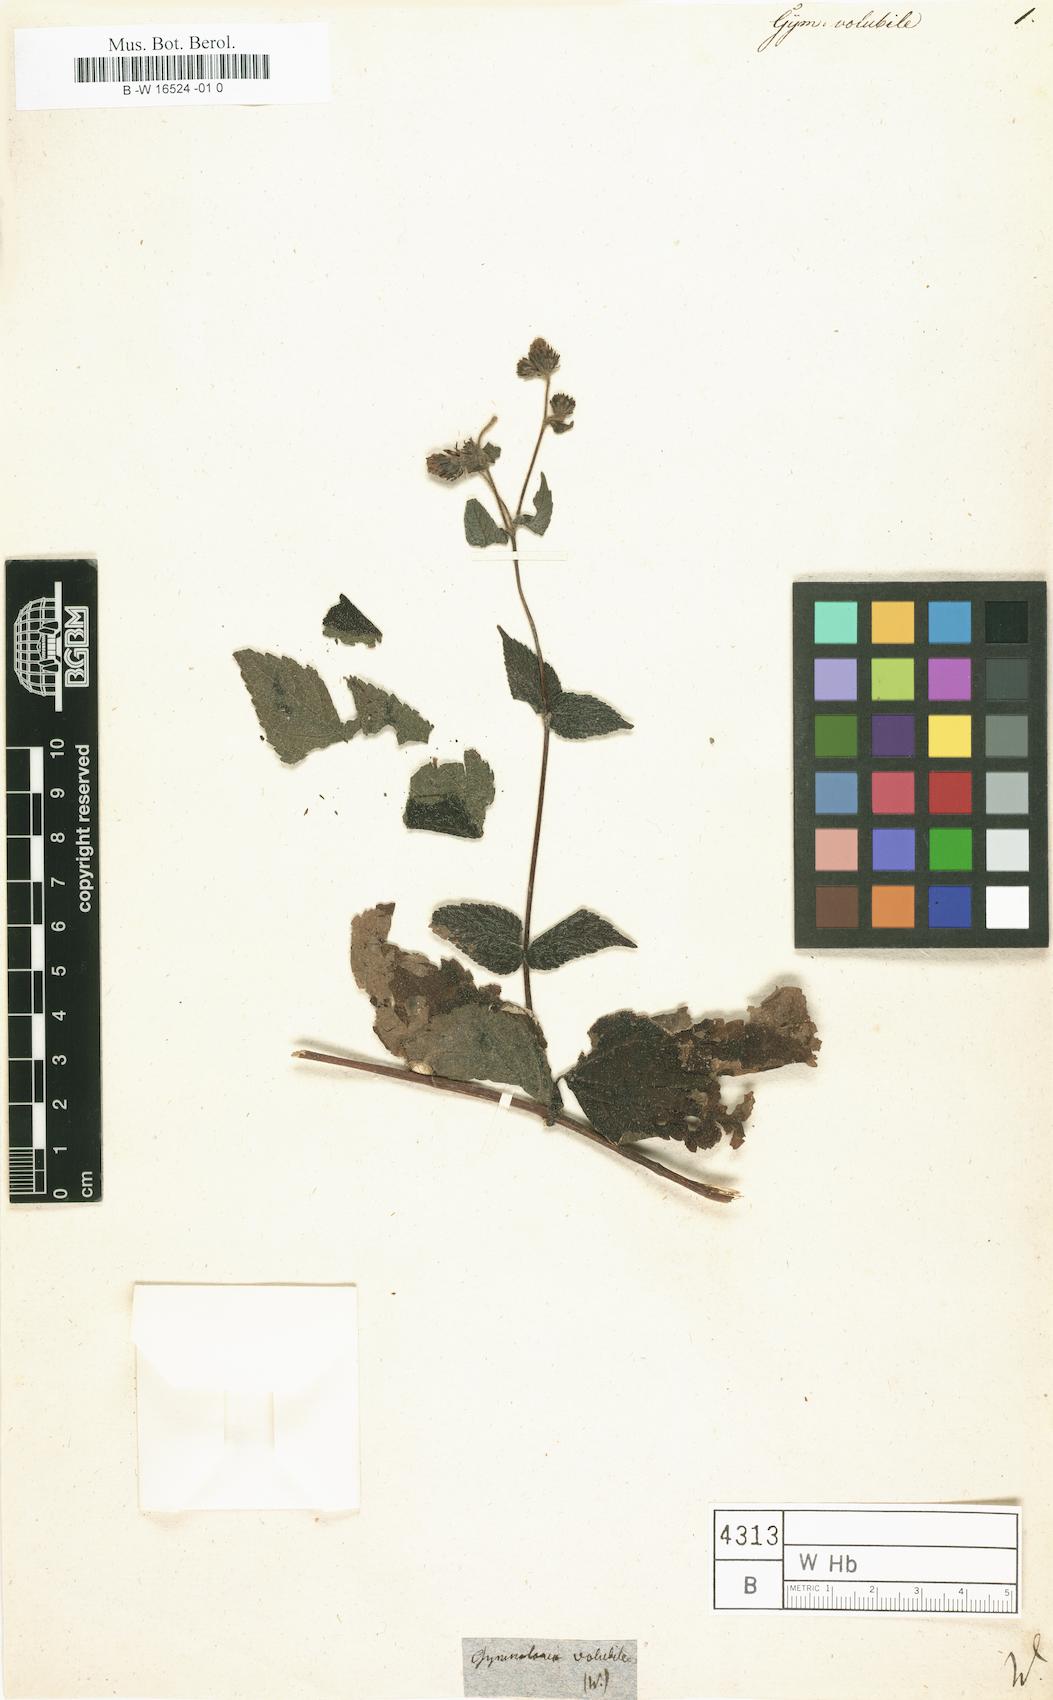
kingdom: Plantae
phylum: Tracheophyta
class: Magnoliopsida
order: Asterales
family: Asteraceae
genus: Gymnoloma
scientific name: Gymnoloma
